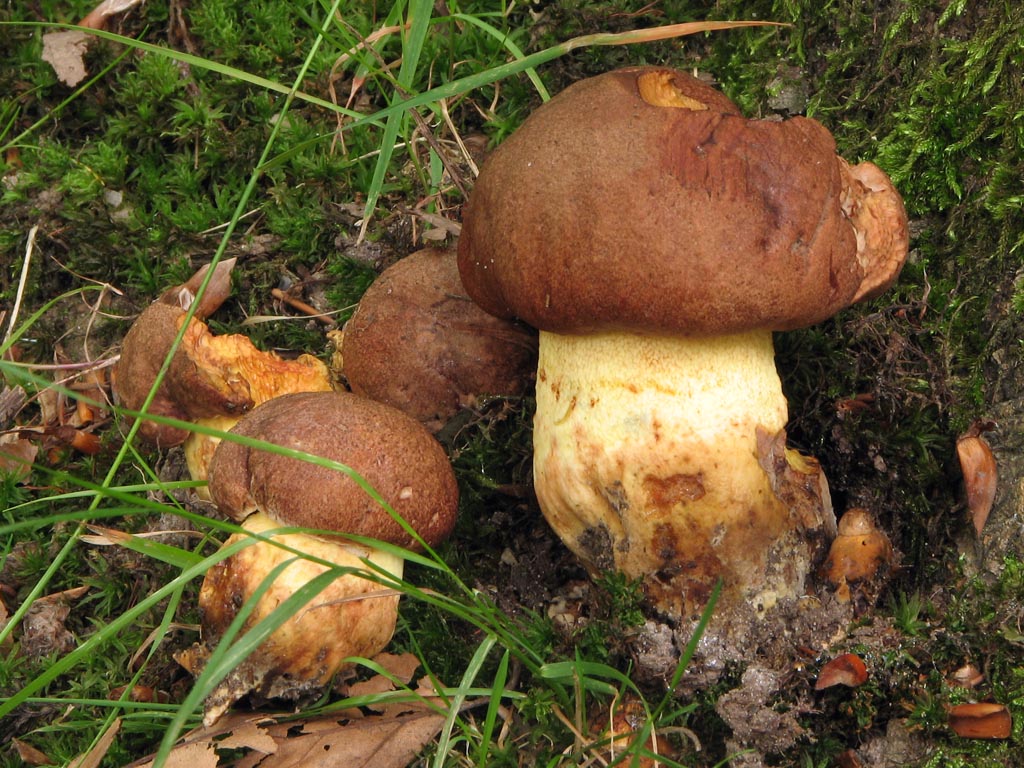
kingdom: Fungi
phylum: Basidiomycota
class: Agaricomycetes
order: Boletales
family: Boletaceae
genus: Butyriboletus
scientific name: Butyriboletus appendiculatus
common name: tenstokket rørhat
